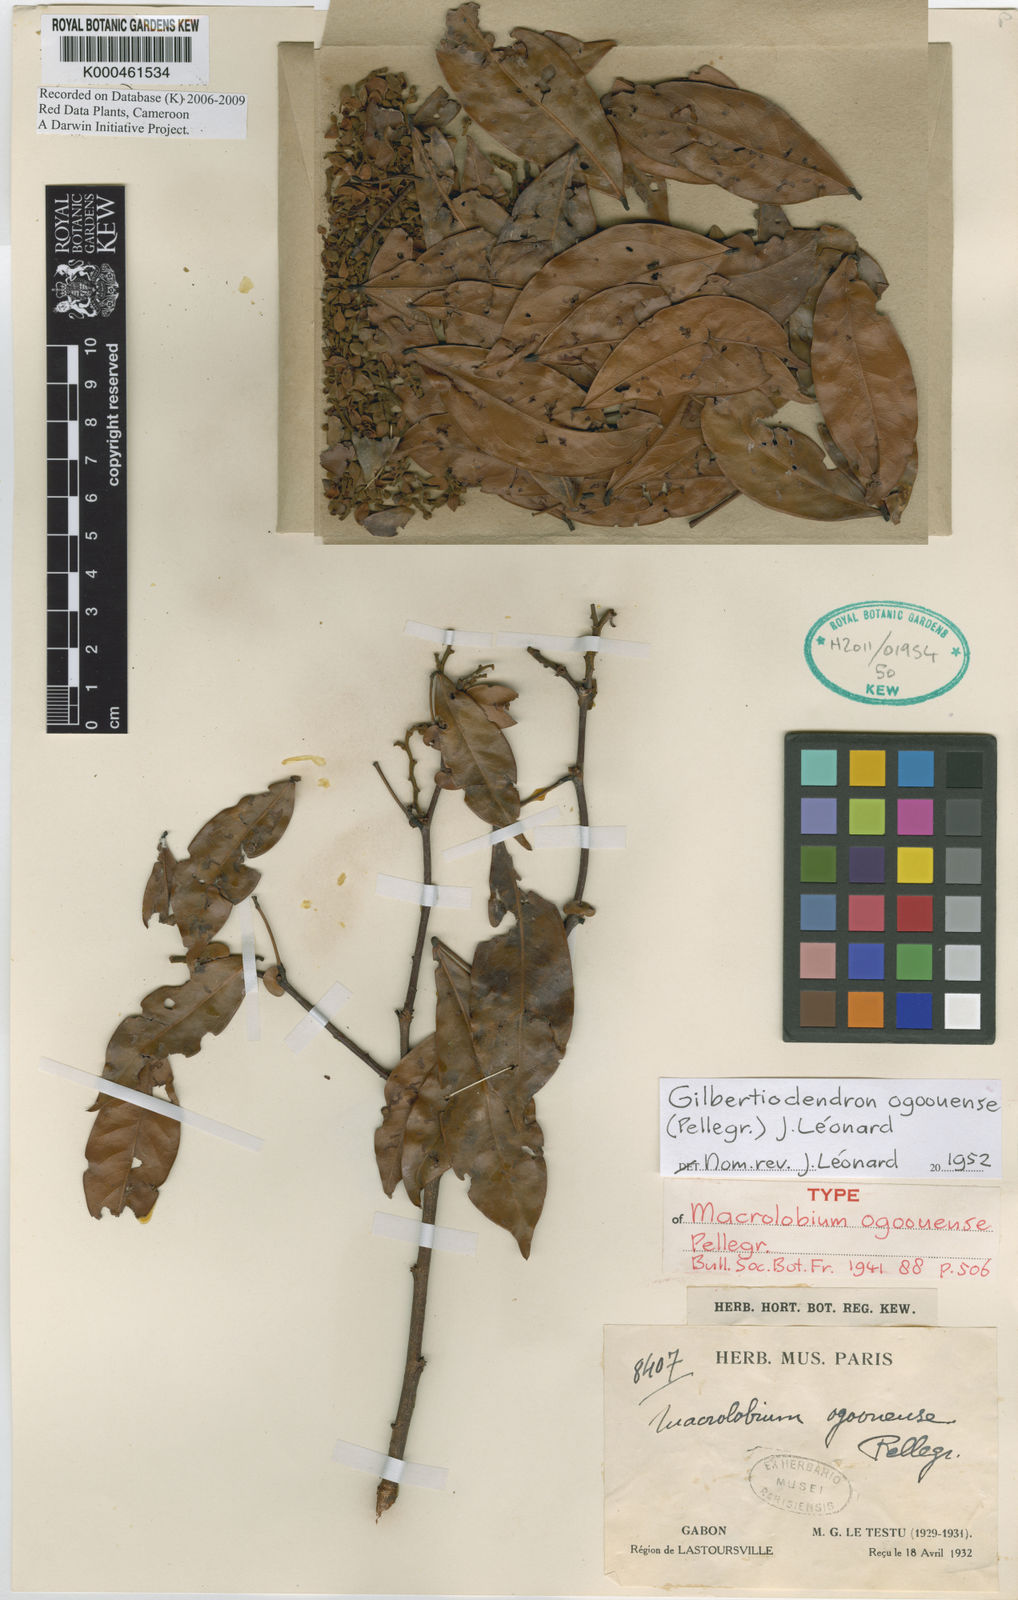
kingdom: Plantae
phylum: Tracheophyta
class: Magnoliopsida
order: Fabales
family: Fabaceae
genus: Gilbertiodendron
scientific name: Gilbertiodendron ogoouense
